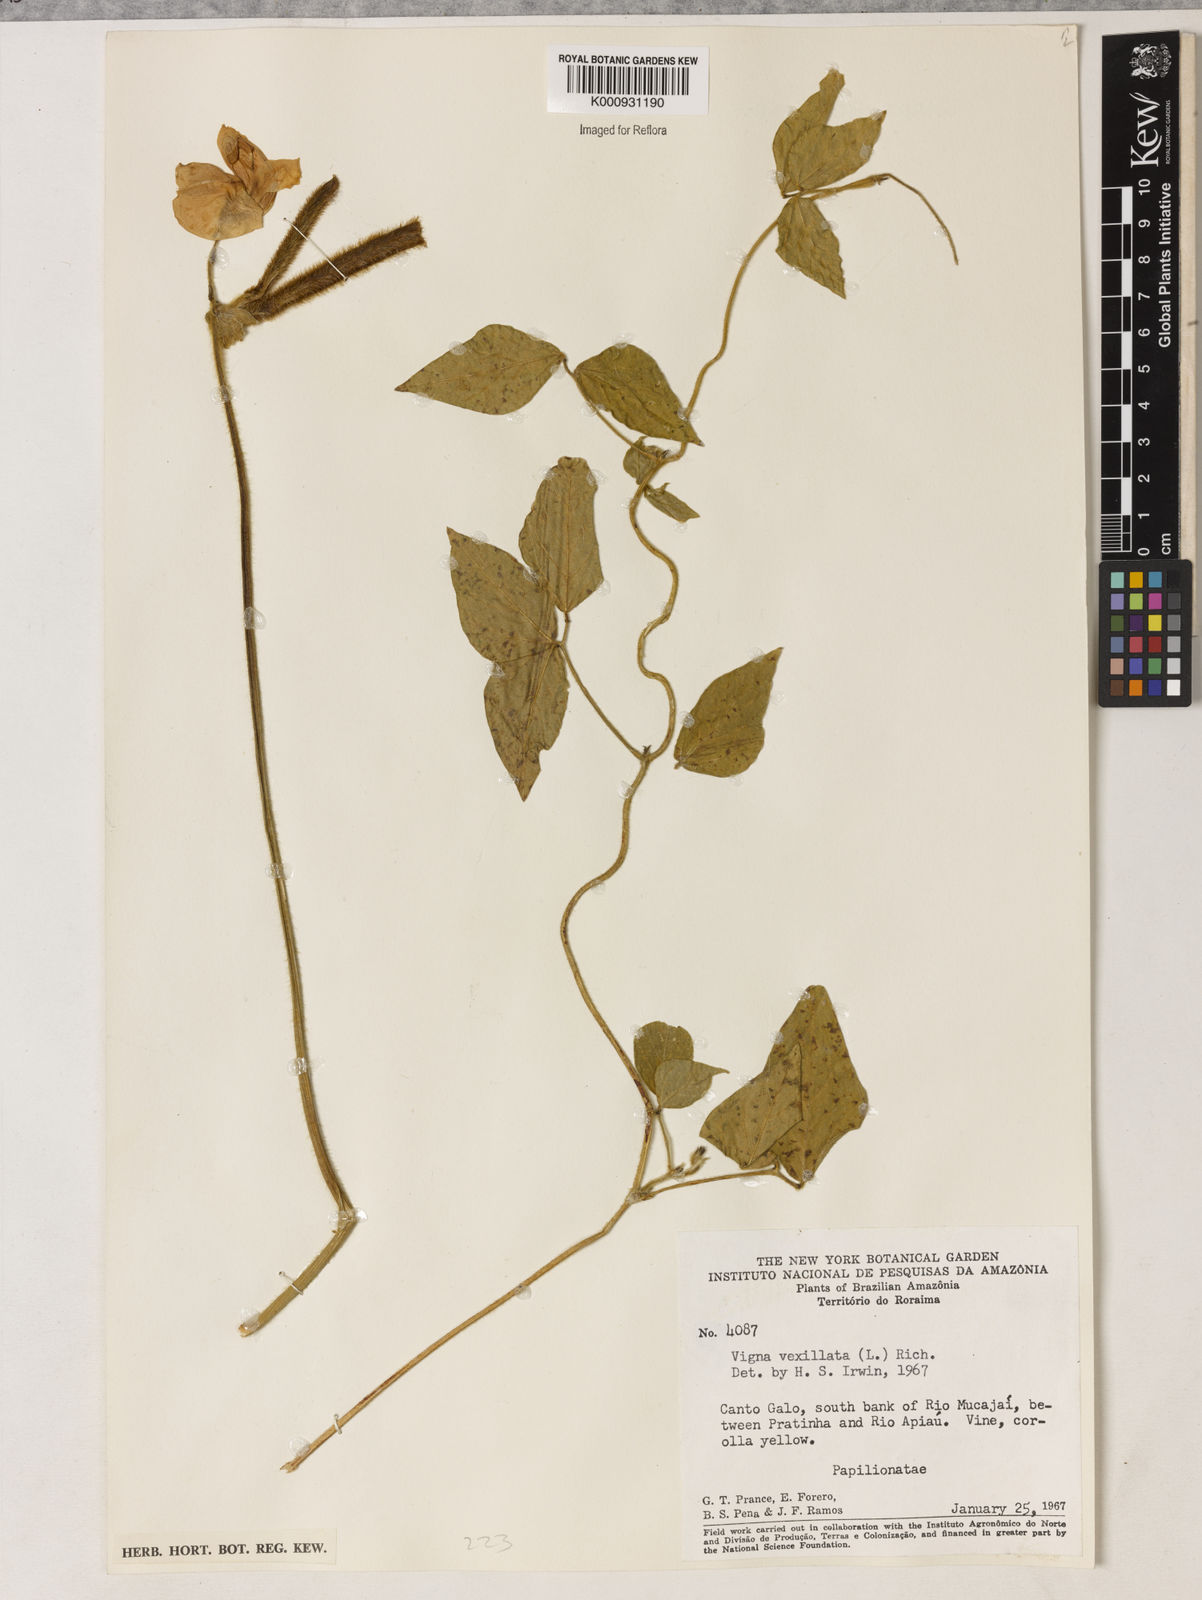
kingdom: Plantae
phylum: Tracheophyta
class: Magnoliopsida
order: Fabales
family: Fabaceae
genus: Vigna
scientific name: Vigna lasiocarpa
